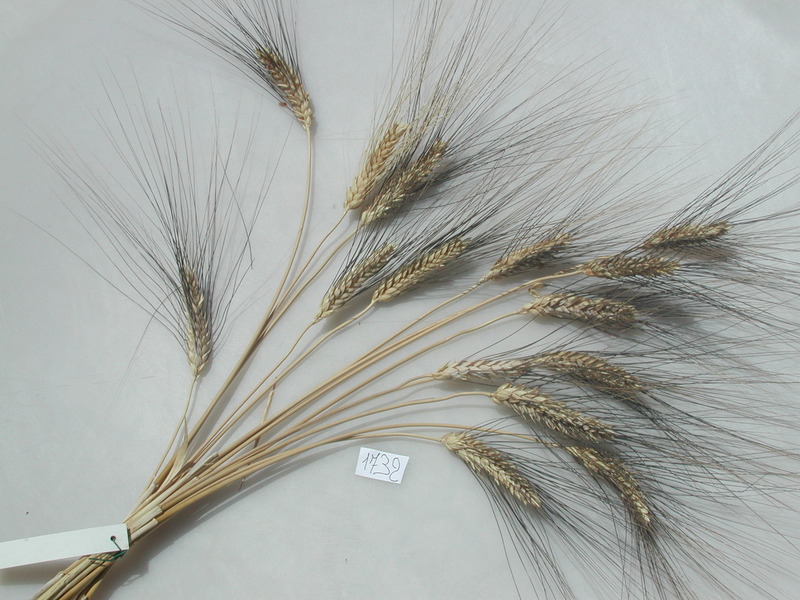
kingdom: Plantae
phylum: Tracheophyta
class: Liliopsida
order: Poales
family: Poaceae
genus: Triticum
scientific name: Triticum turgidum
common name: Wheat
